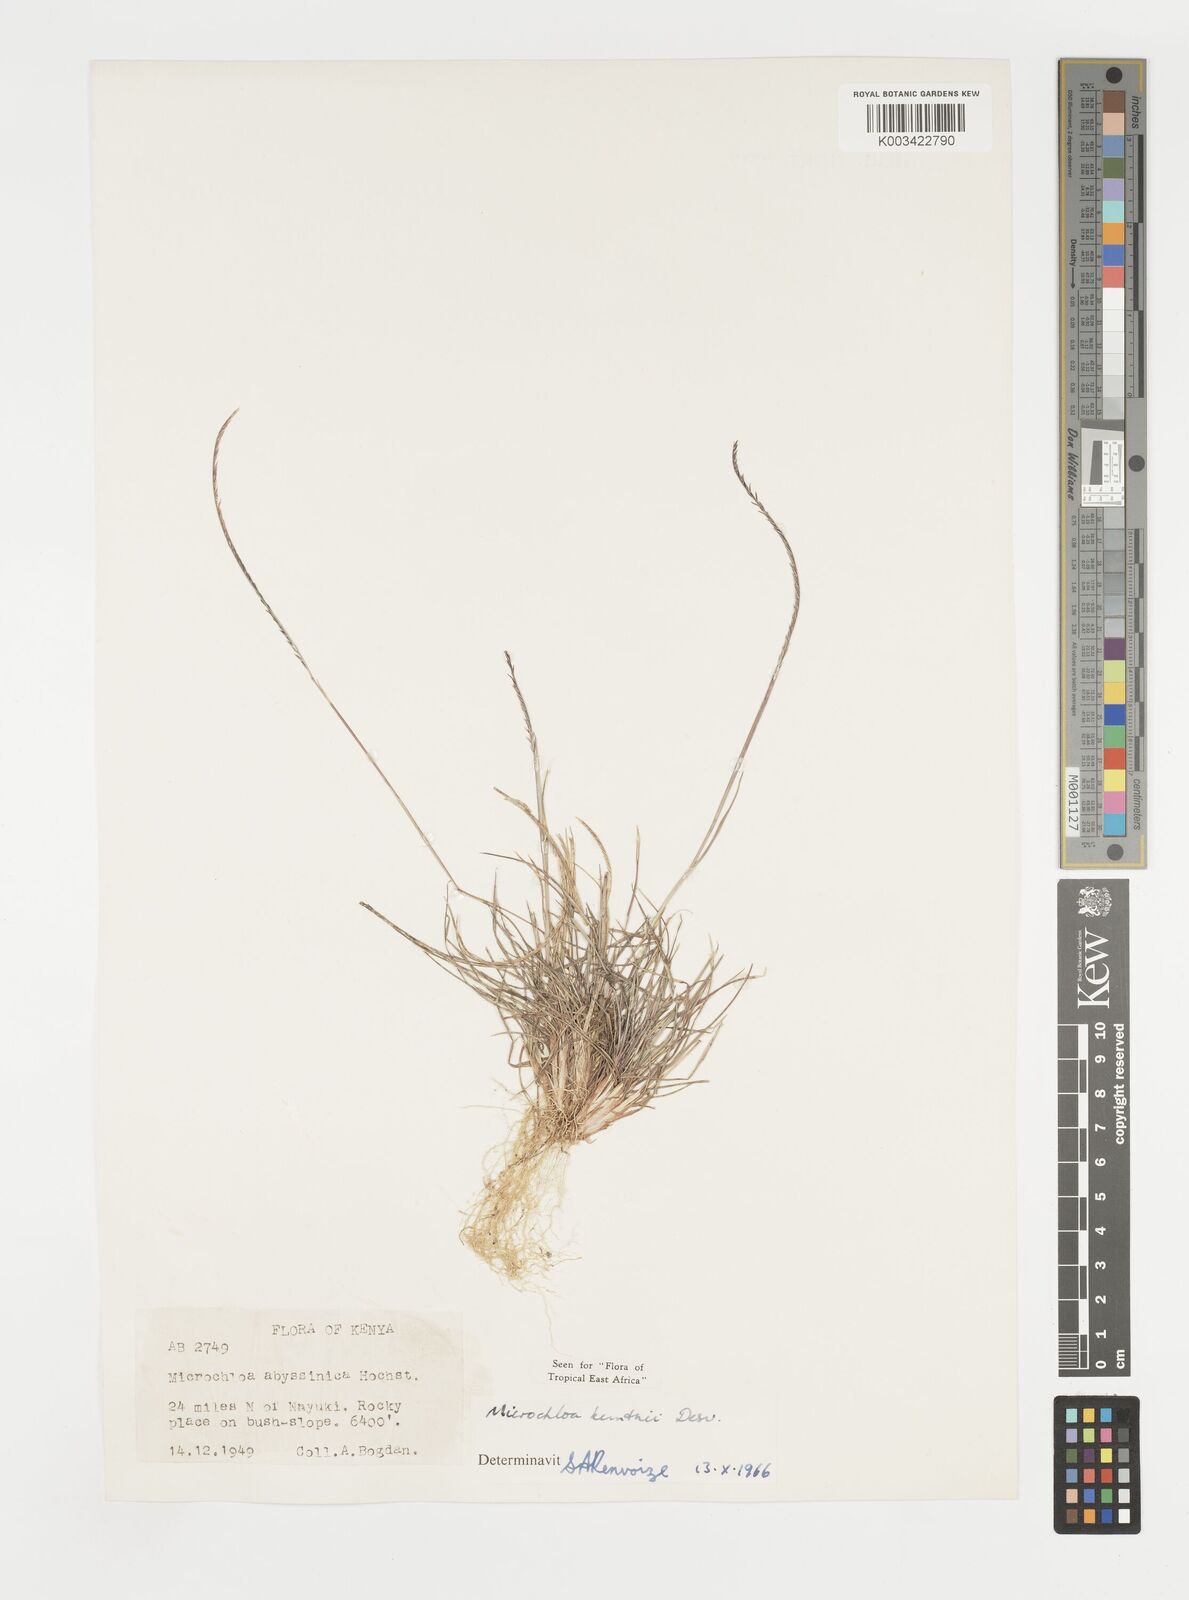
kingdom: Plantae
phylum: Tracheophyta
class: Liliopsida
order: Poales
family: Poaceae
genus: Microchloa
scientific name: Microchloa kunthii
